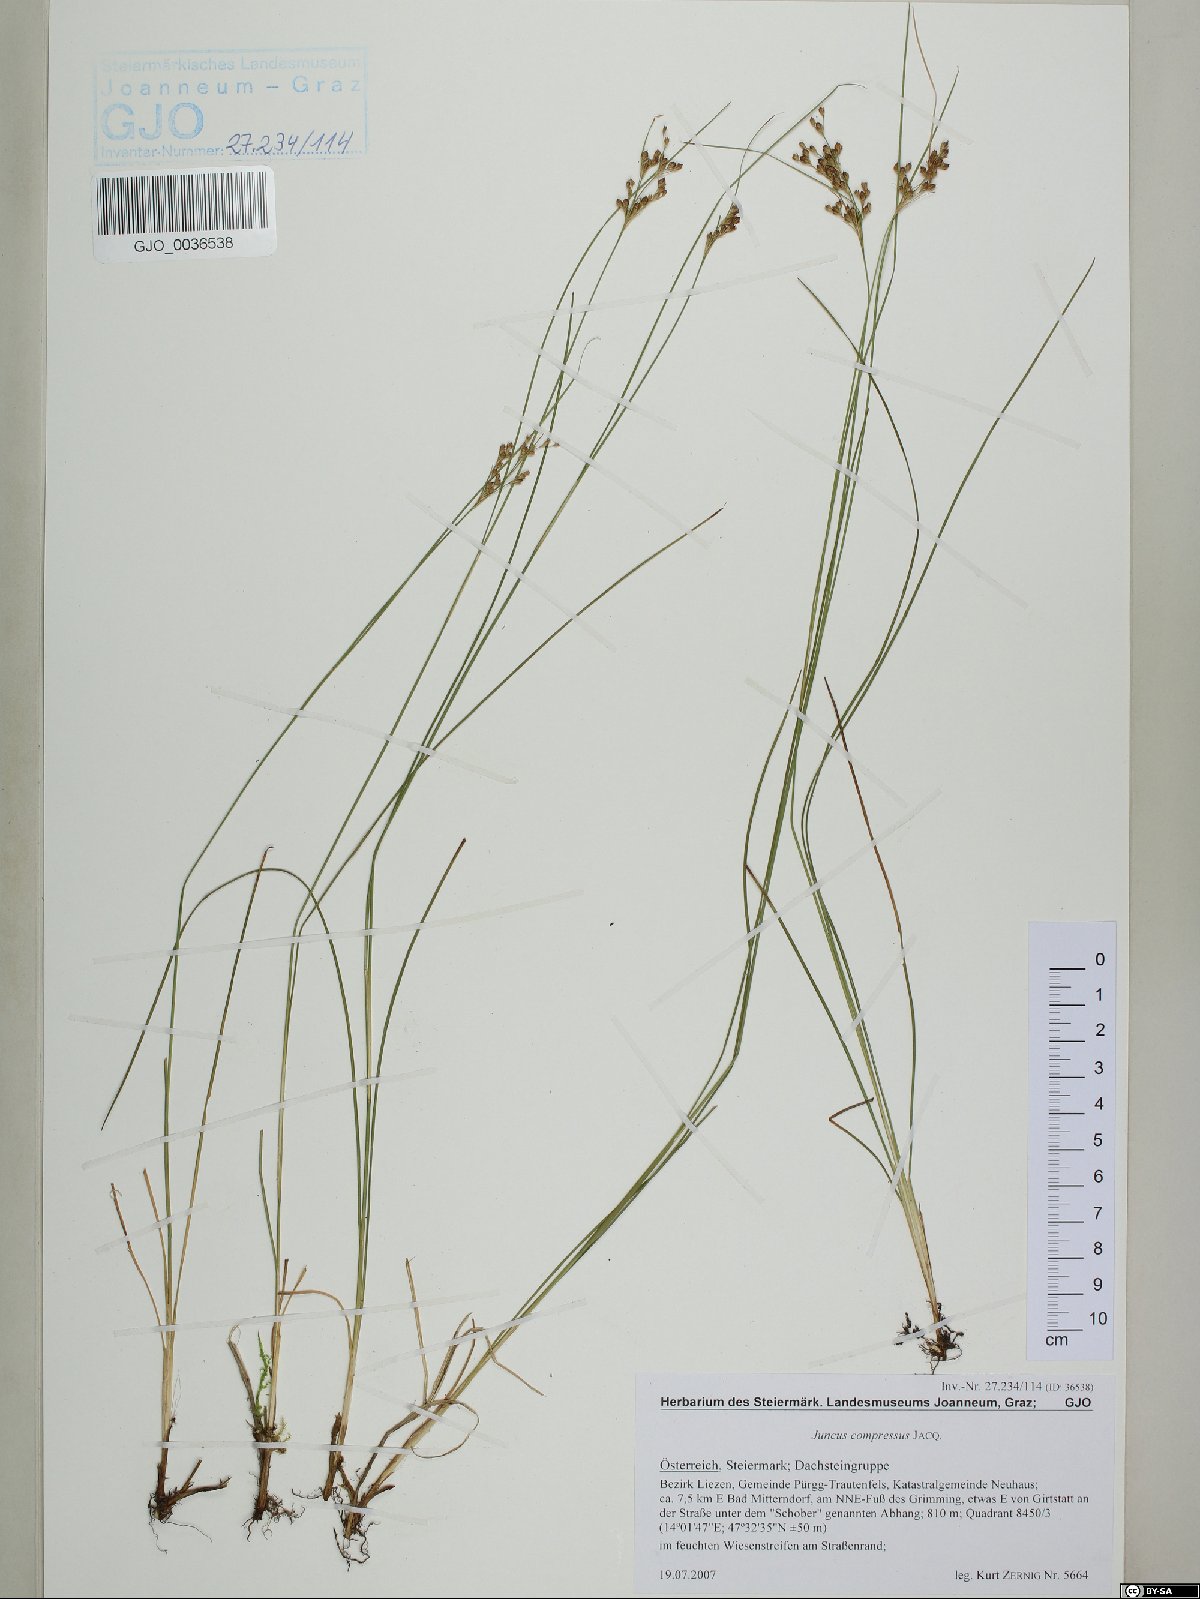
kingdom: Plantae
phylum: Tracheophyta
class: Liliopsida
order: Poales
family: Juncaceae
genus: Juncus
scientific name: Juncus compressus
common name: Round-fruited rush
